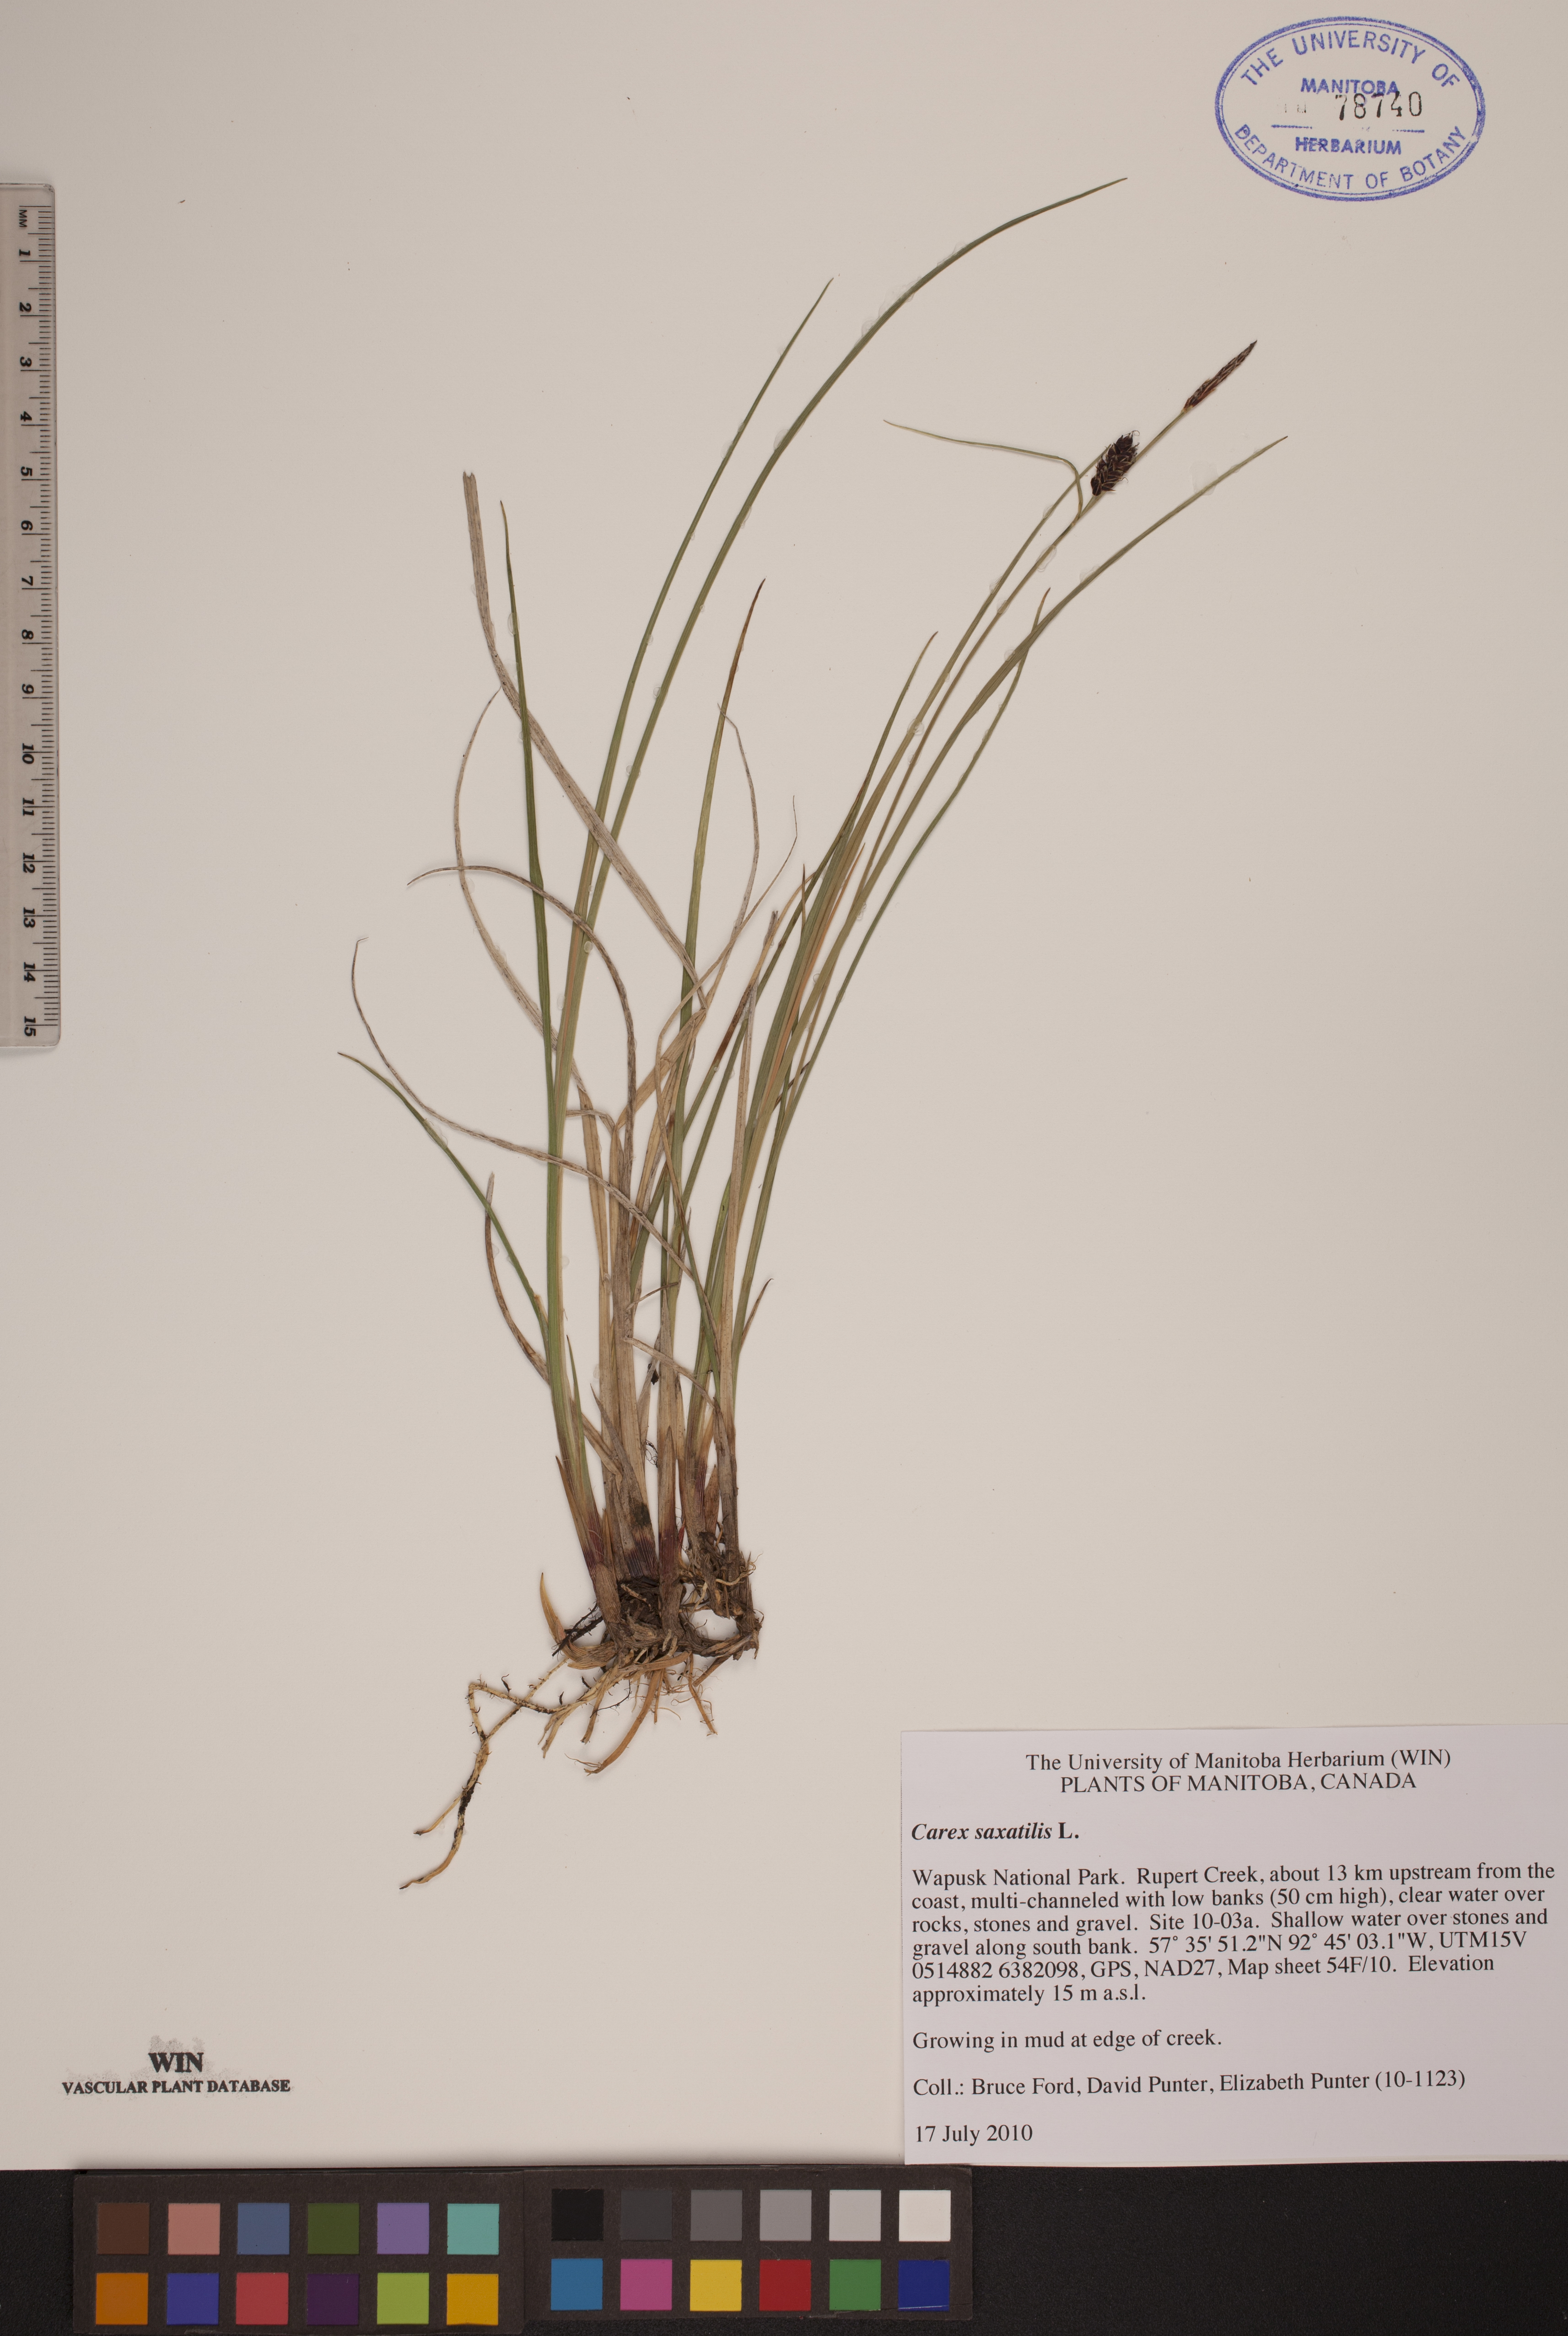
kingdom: Plantae
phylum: Tracheophyta
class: Liliopsida
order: Poales
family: Cyperaceae
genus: Carex
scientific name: Carex saxatilis
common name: Russet sedge
